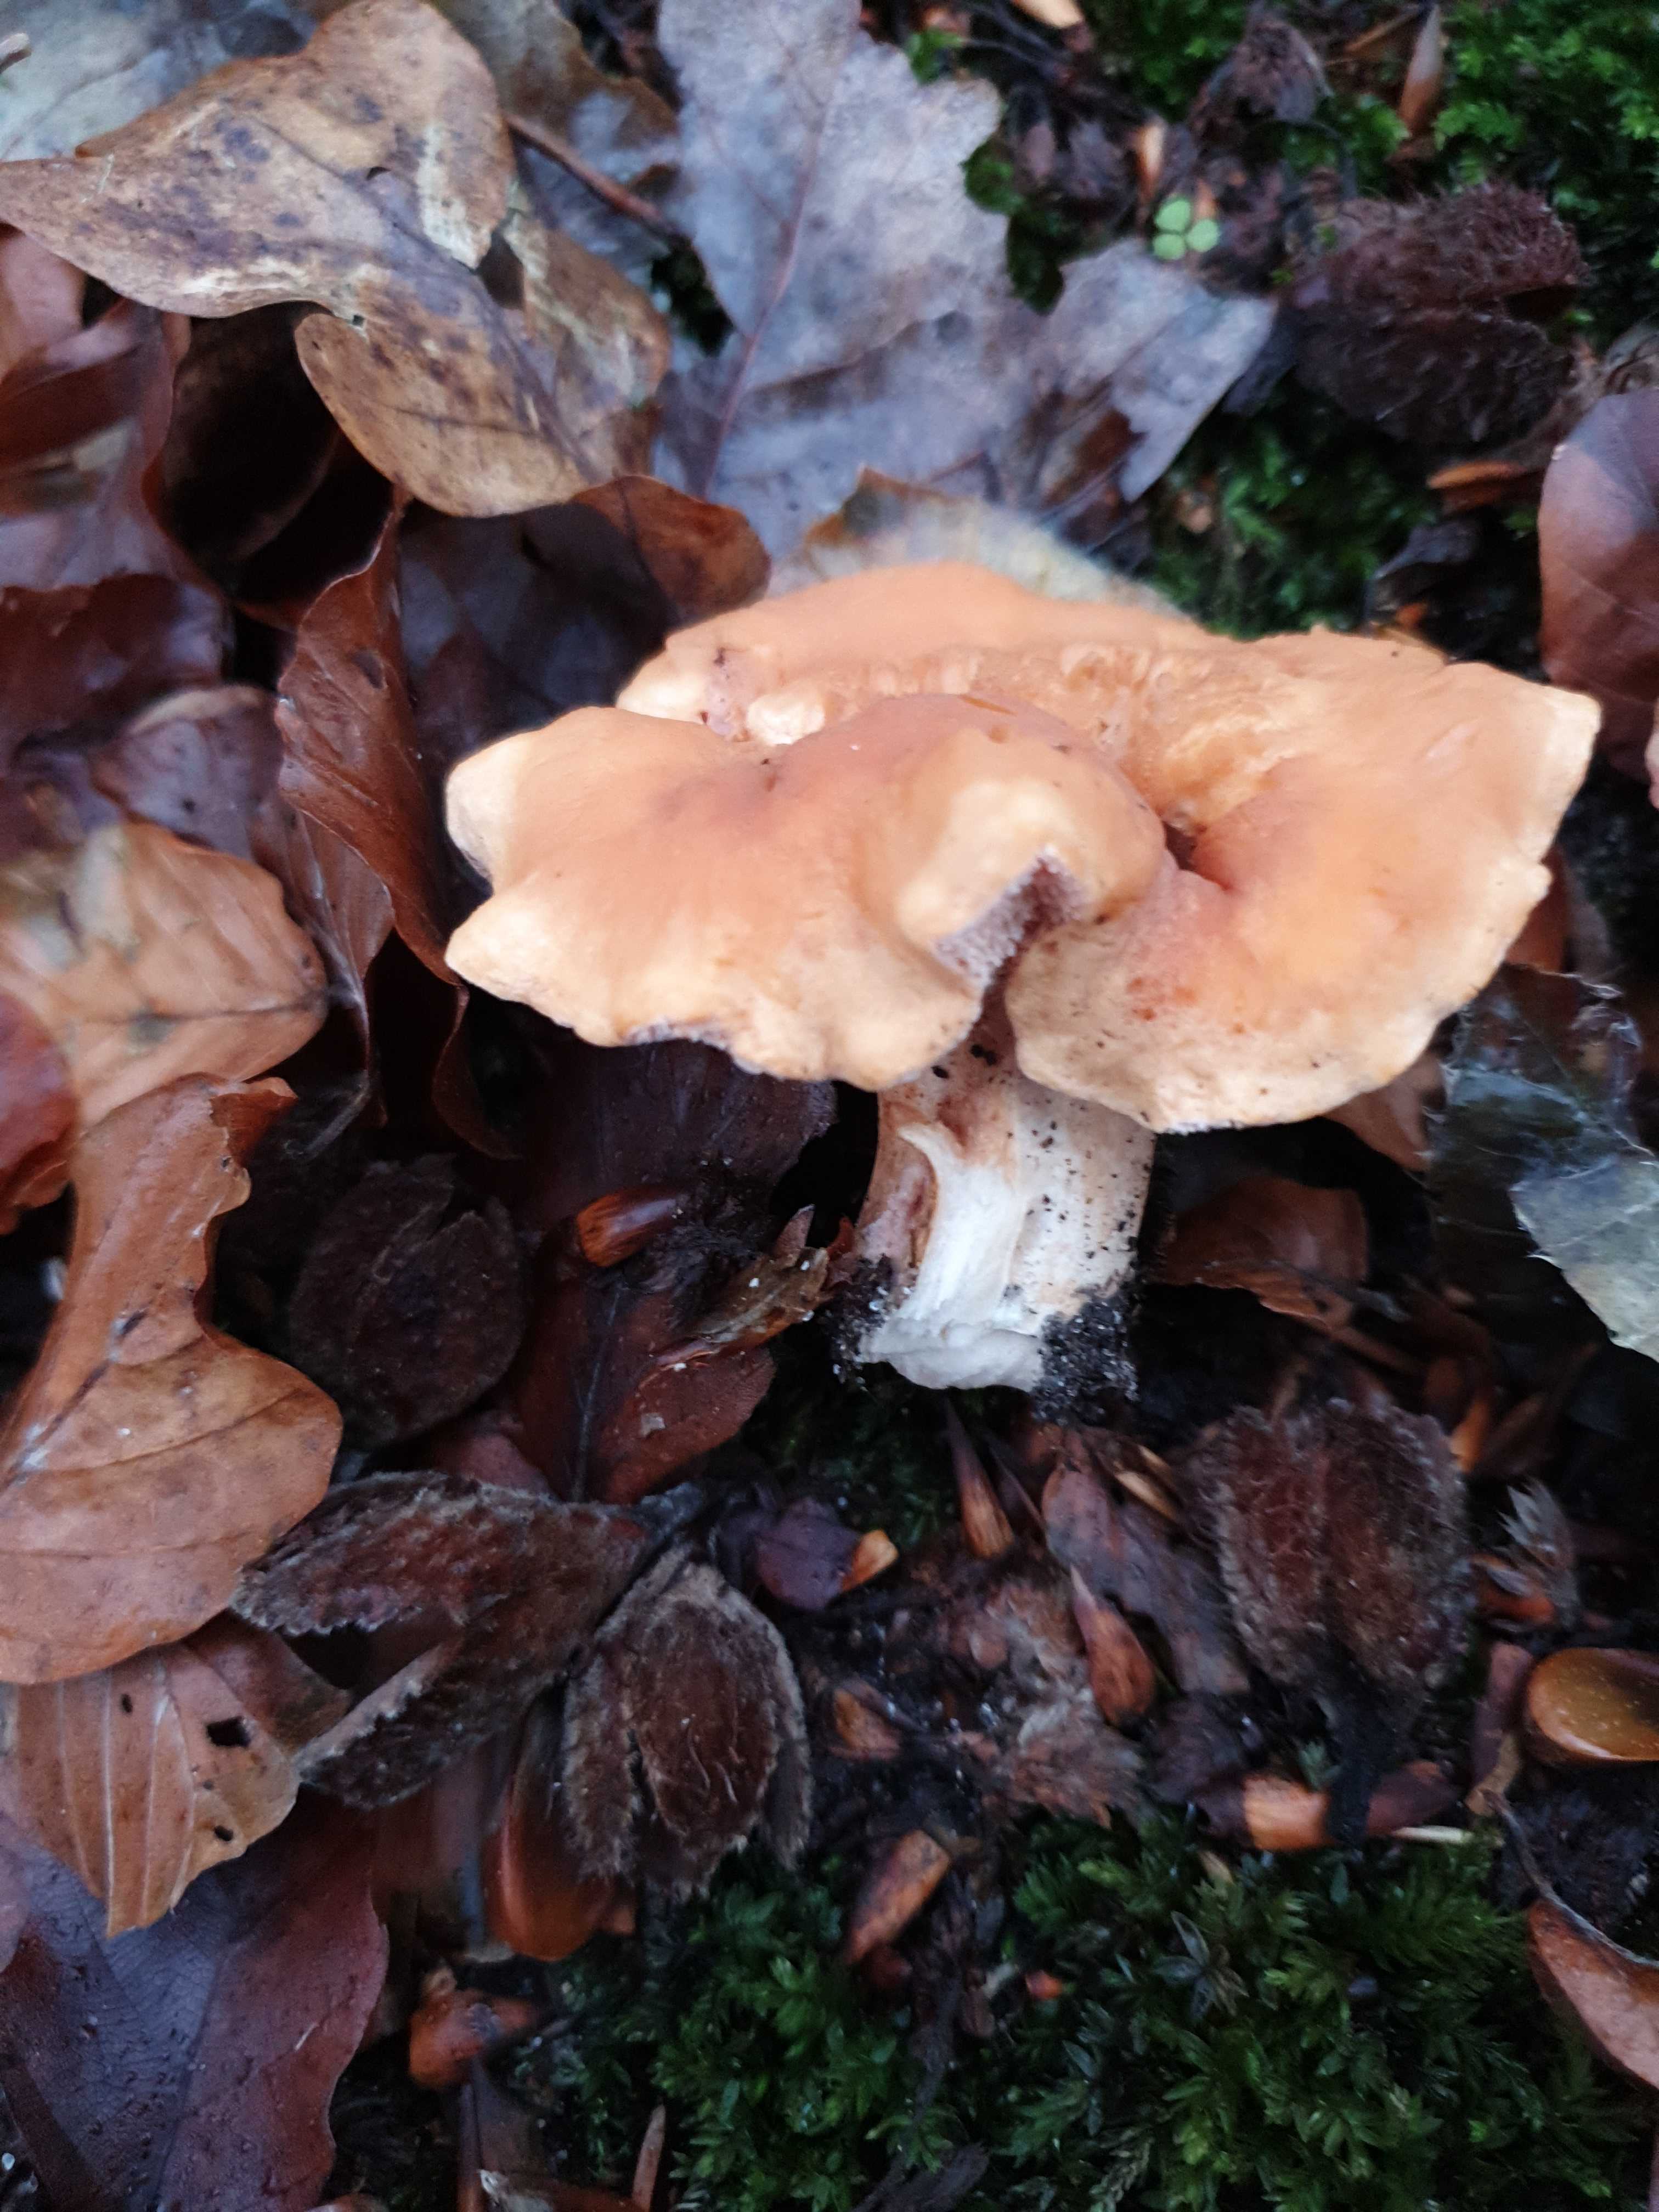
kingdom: Fungi
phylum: Basidiomycota
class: Agaricomycetes
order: Cantharellales
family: Hydnaceae
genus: Hydnum
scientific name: Hydnum
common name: pigsvamp
